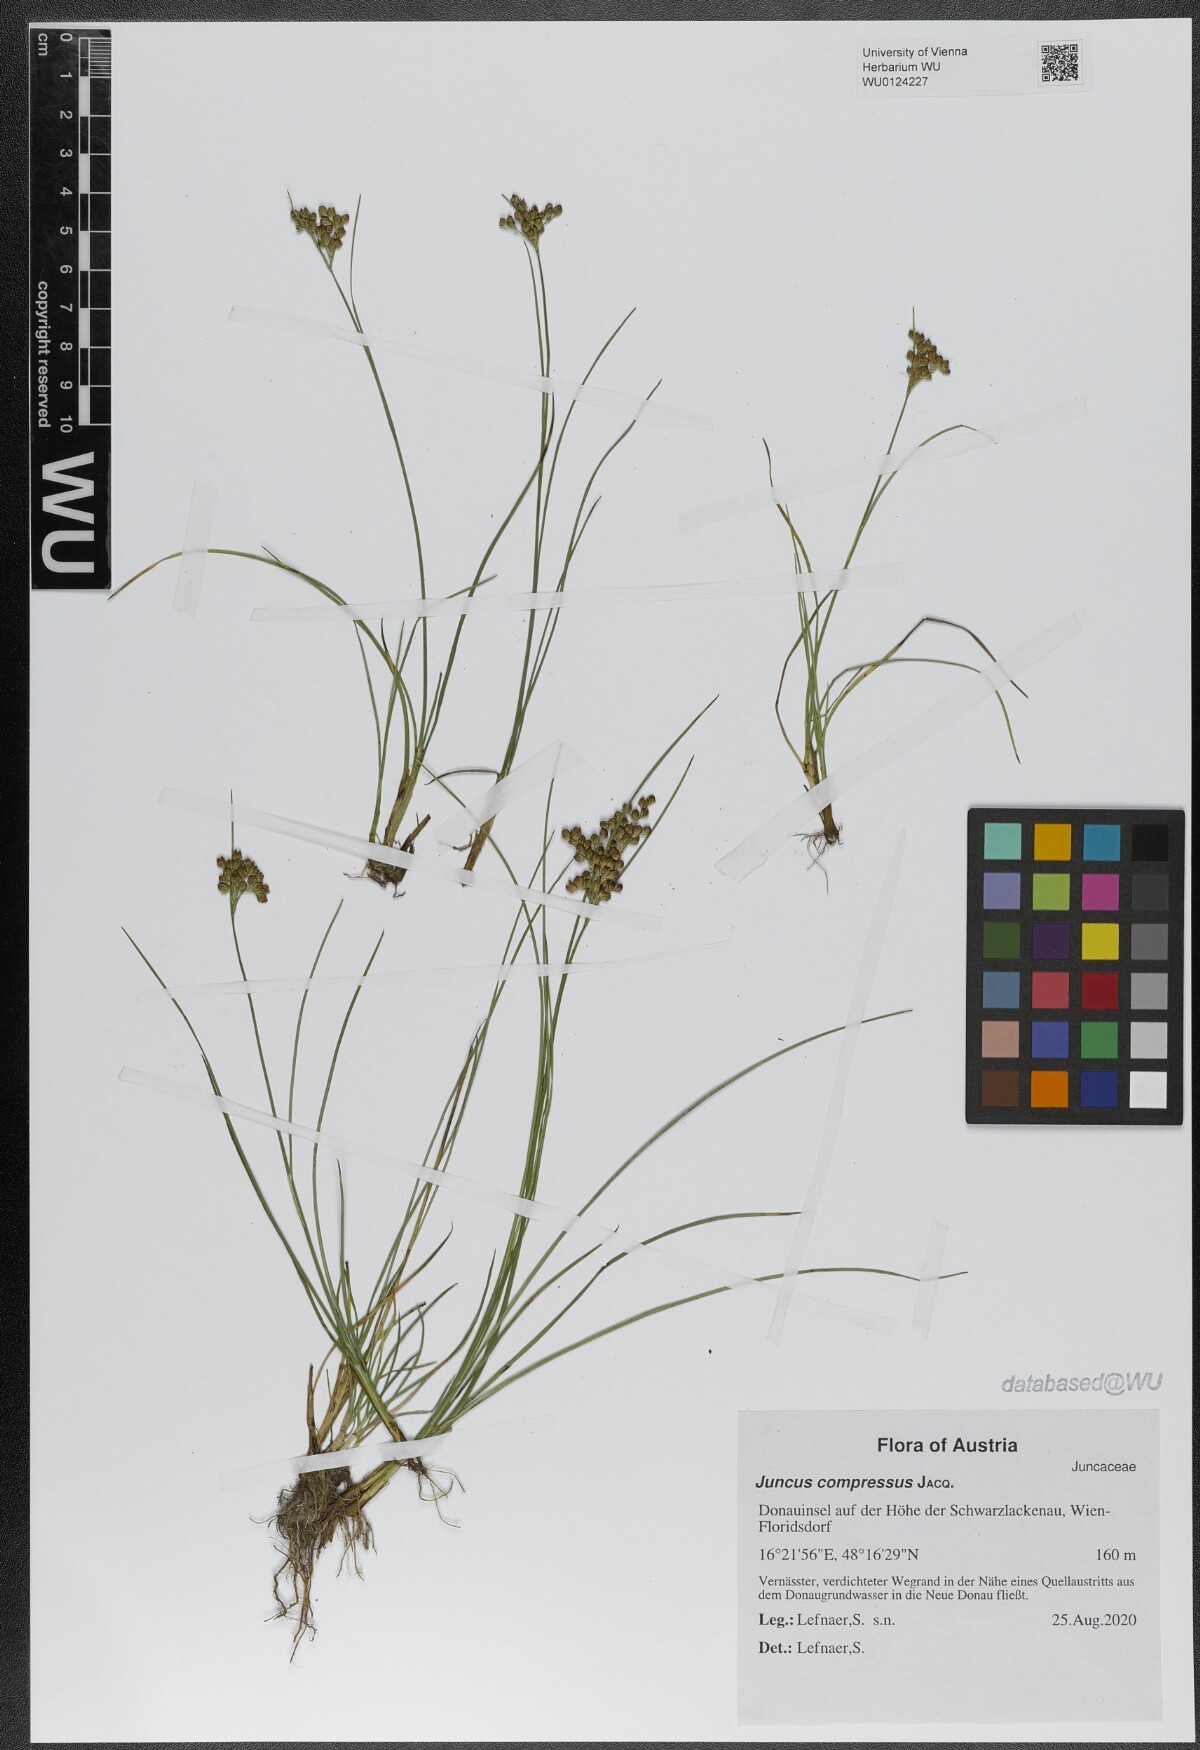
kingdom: Plantae
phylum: Tracheophyta
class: Liliopsida
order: Poales
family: Juncaceae
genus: Juncus
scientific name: Juncus compressus
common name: Round-fruited rush
